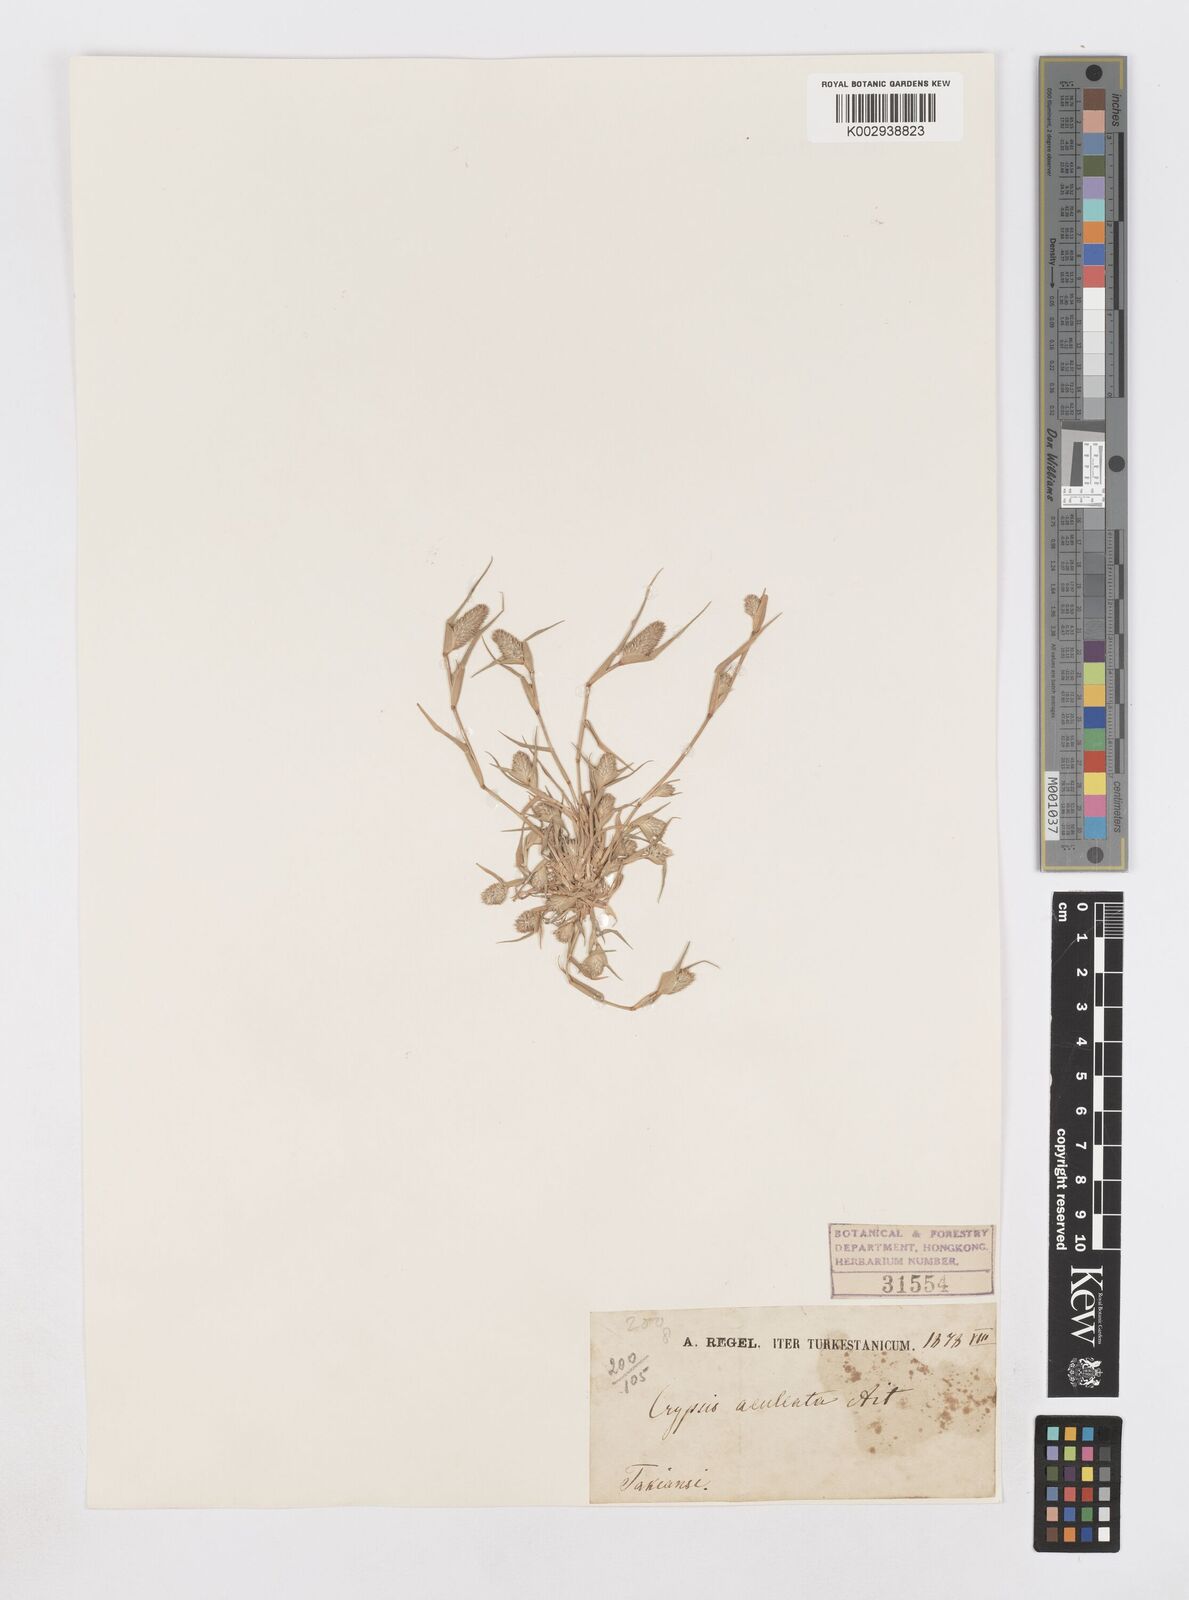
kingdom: Plantae
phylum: Tracheophyta
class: Liliopsida
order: Poales
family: Poaceae
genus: Sporobolus
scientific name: Sporobolus aculeatus
